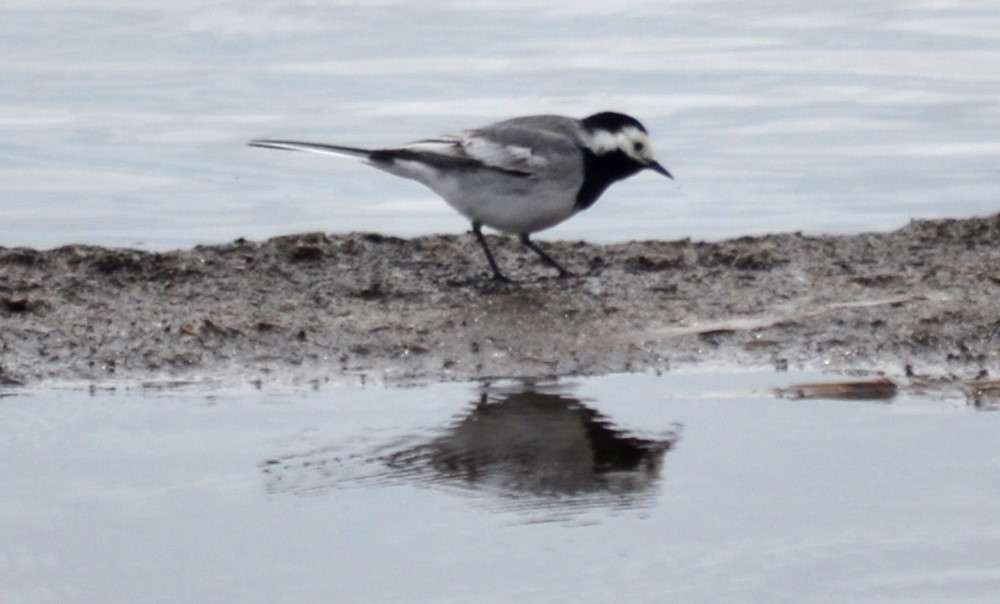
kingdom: Animalia
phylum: Chordata
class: Aves
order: Passeriformes
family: Motacillidae
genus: Motacilla
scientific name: Motacilla alba
